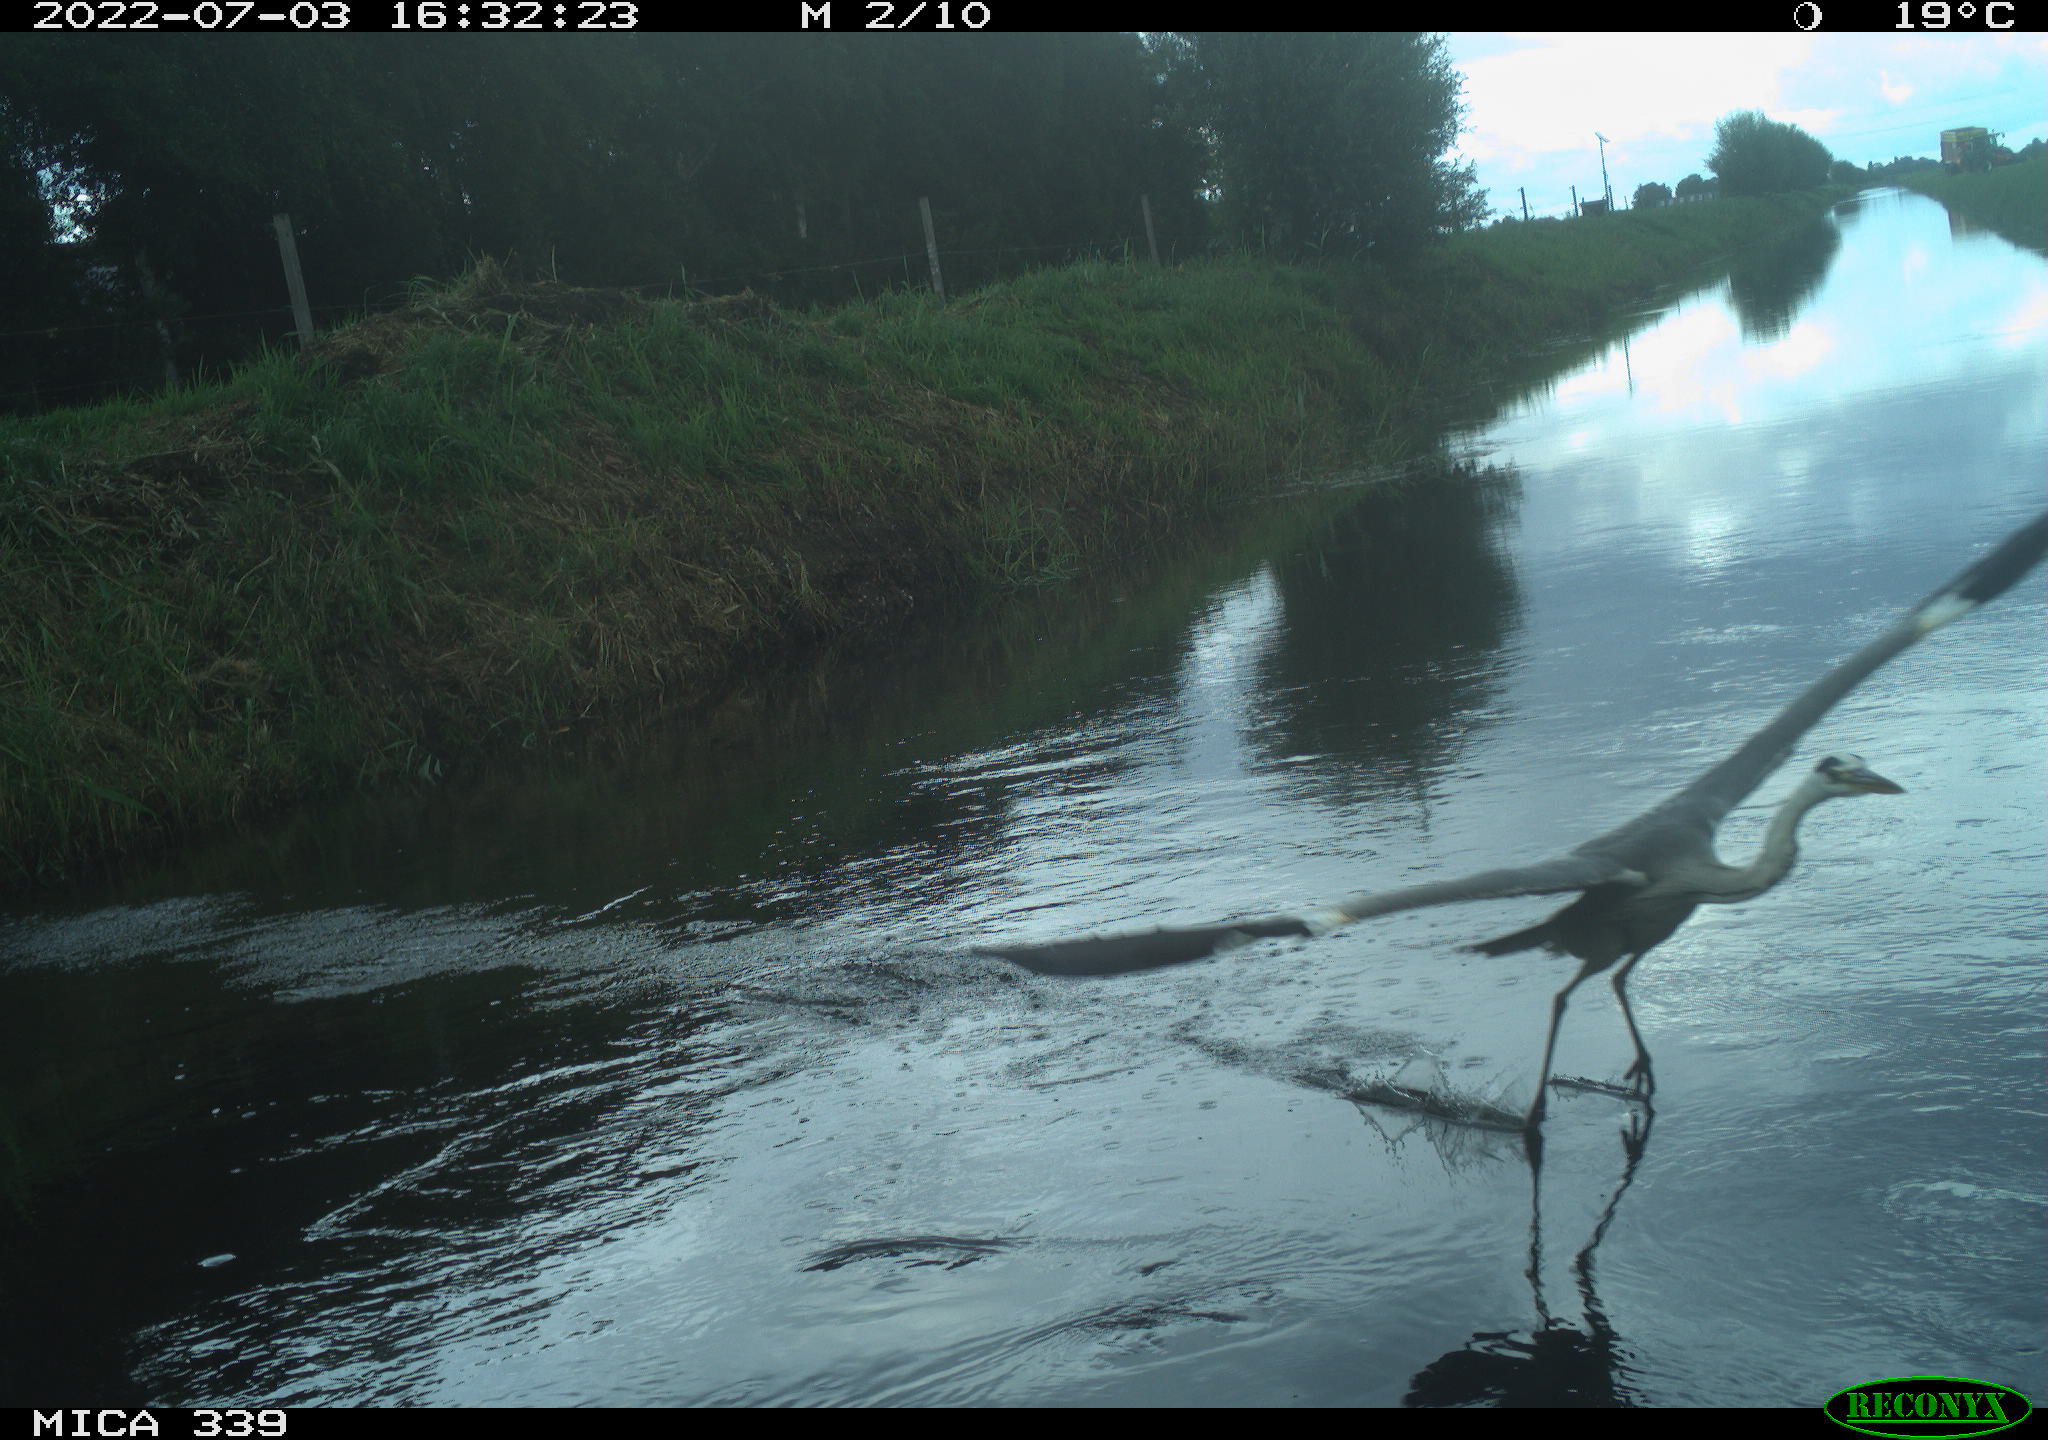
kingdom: Animalia
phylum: Chordata
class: Aves
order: Pelecaniformes
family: Ardeidae
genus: Ardea
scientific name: Ardea cinerea
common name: Grey heron
